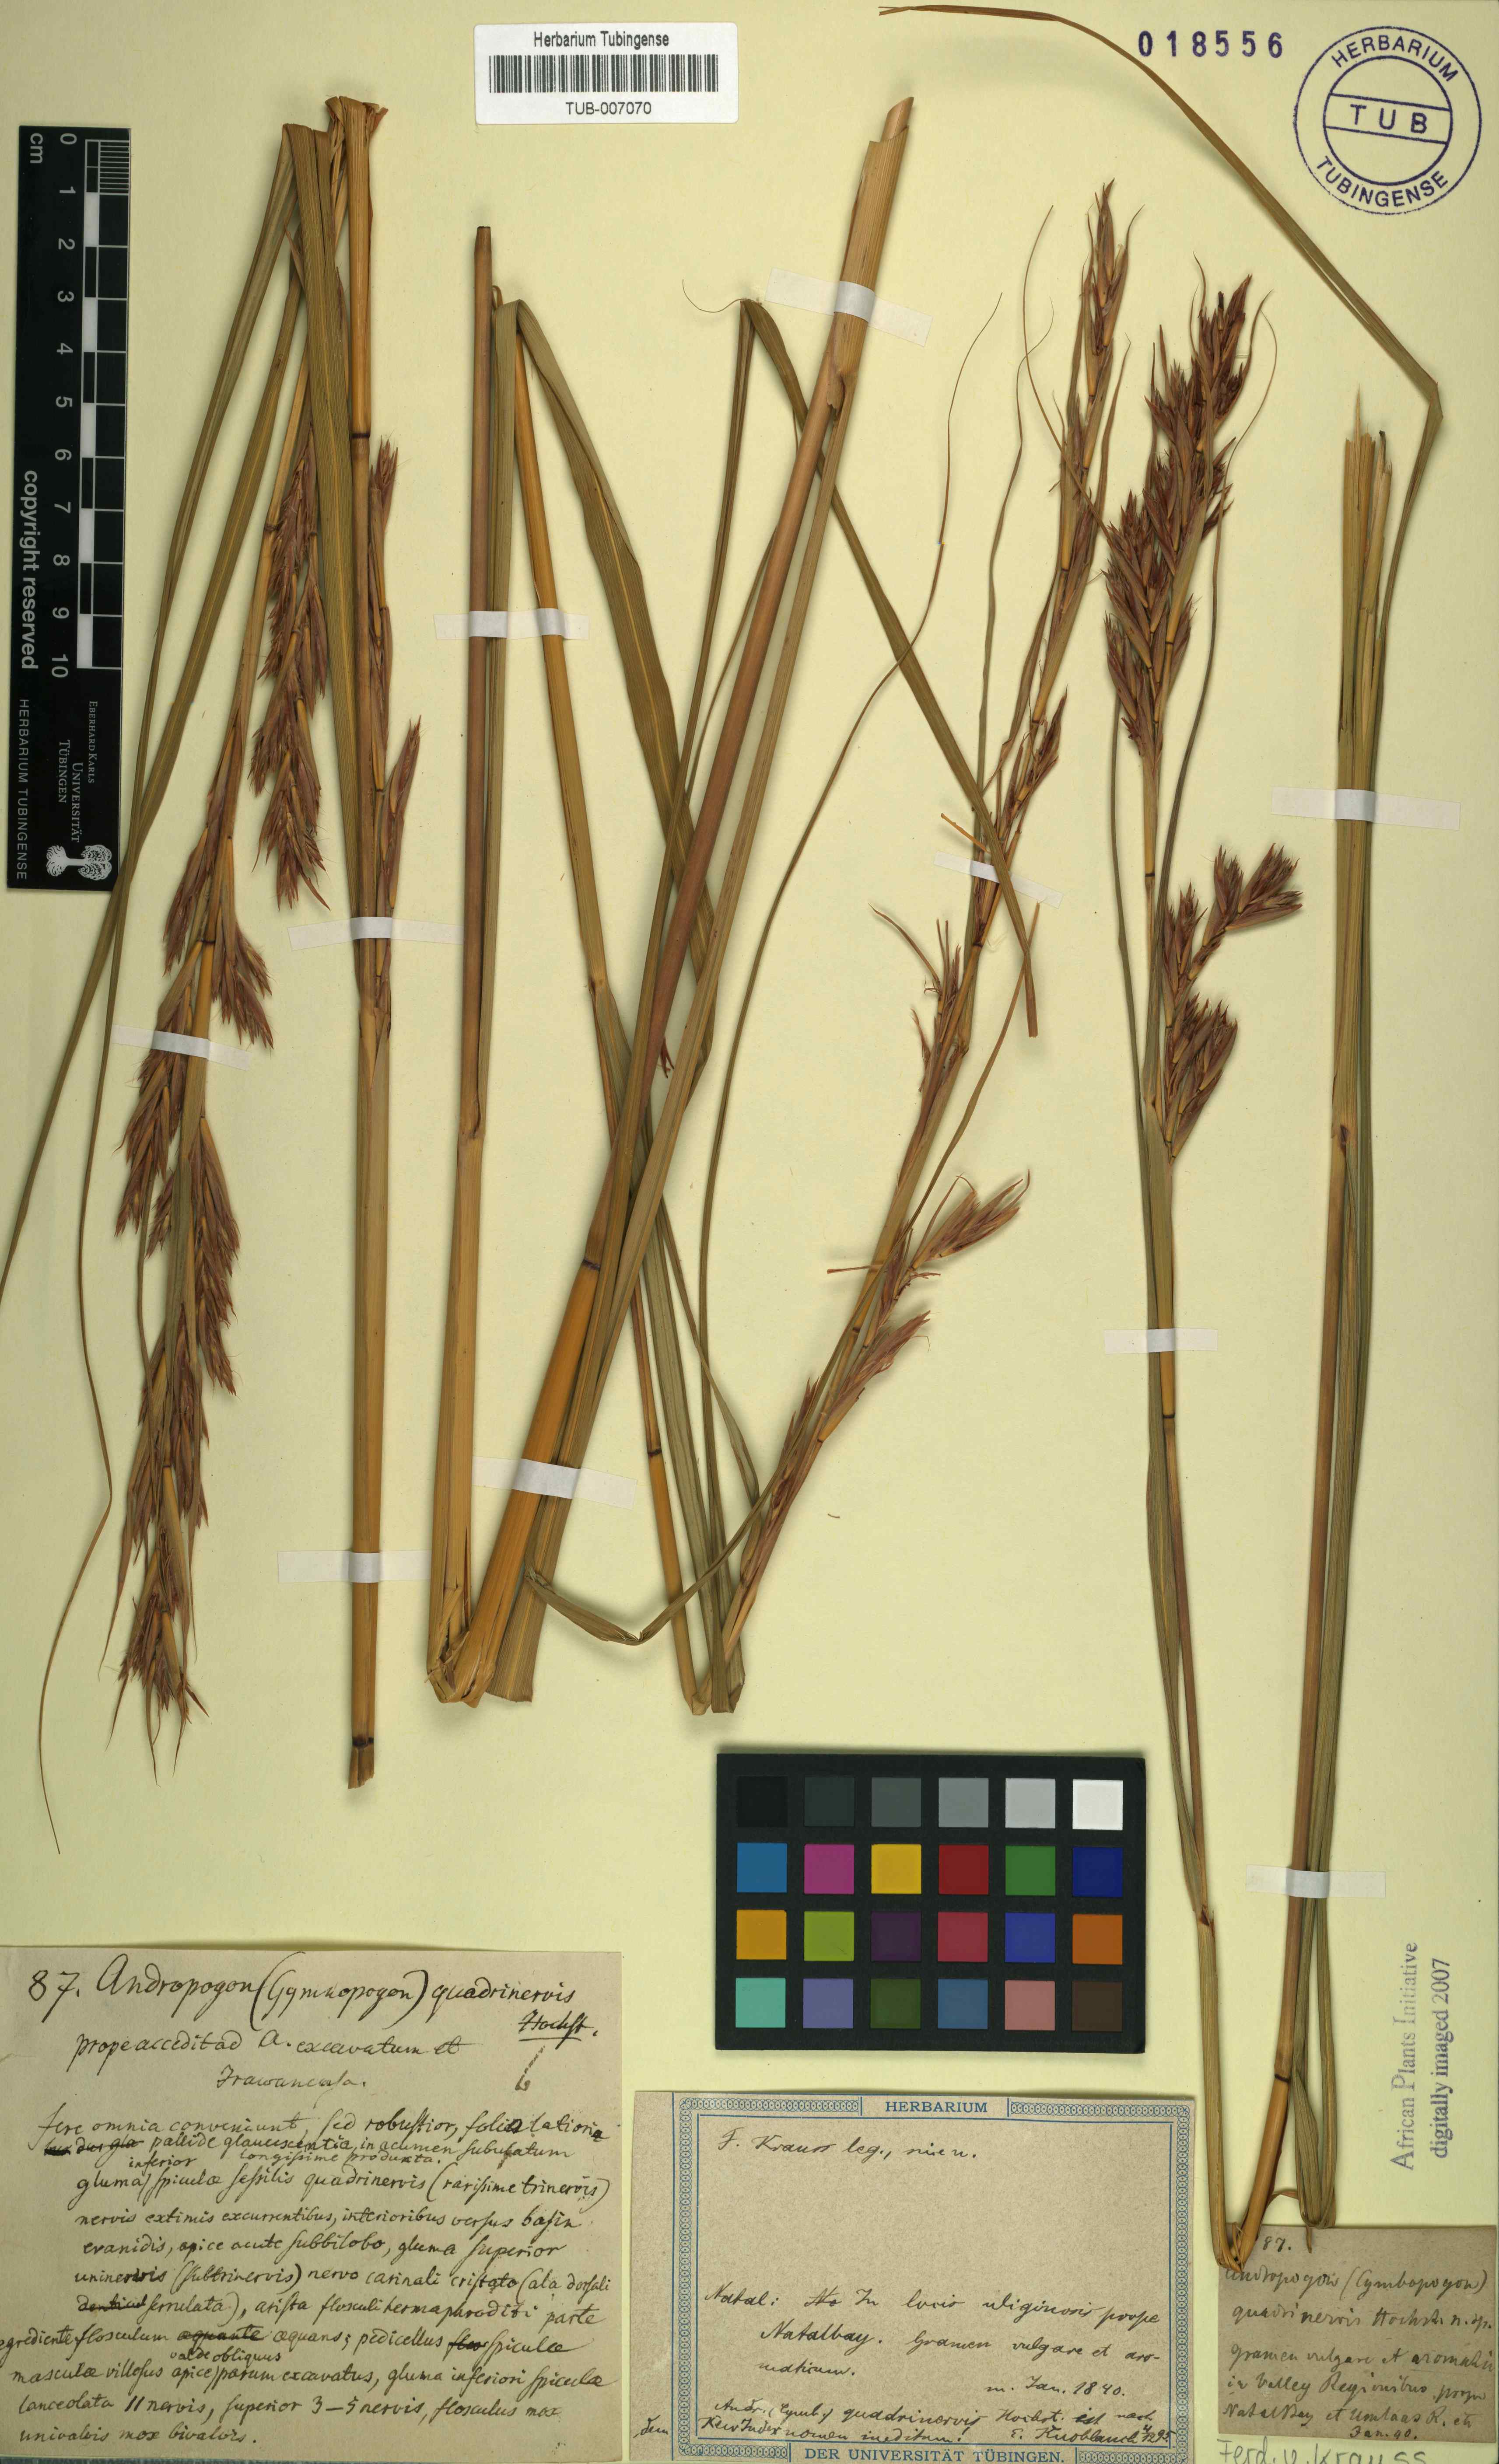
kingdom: Plantae
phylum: Tracheophyta
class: Liliopsida
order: Poales
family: Poaceae
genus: Cymbopogon
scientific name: Cymbopogon schoenanthus
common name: Geranium grass
